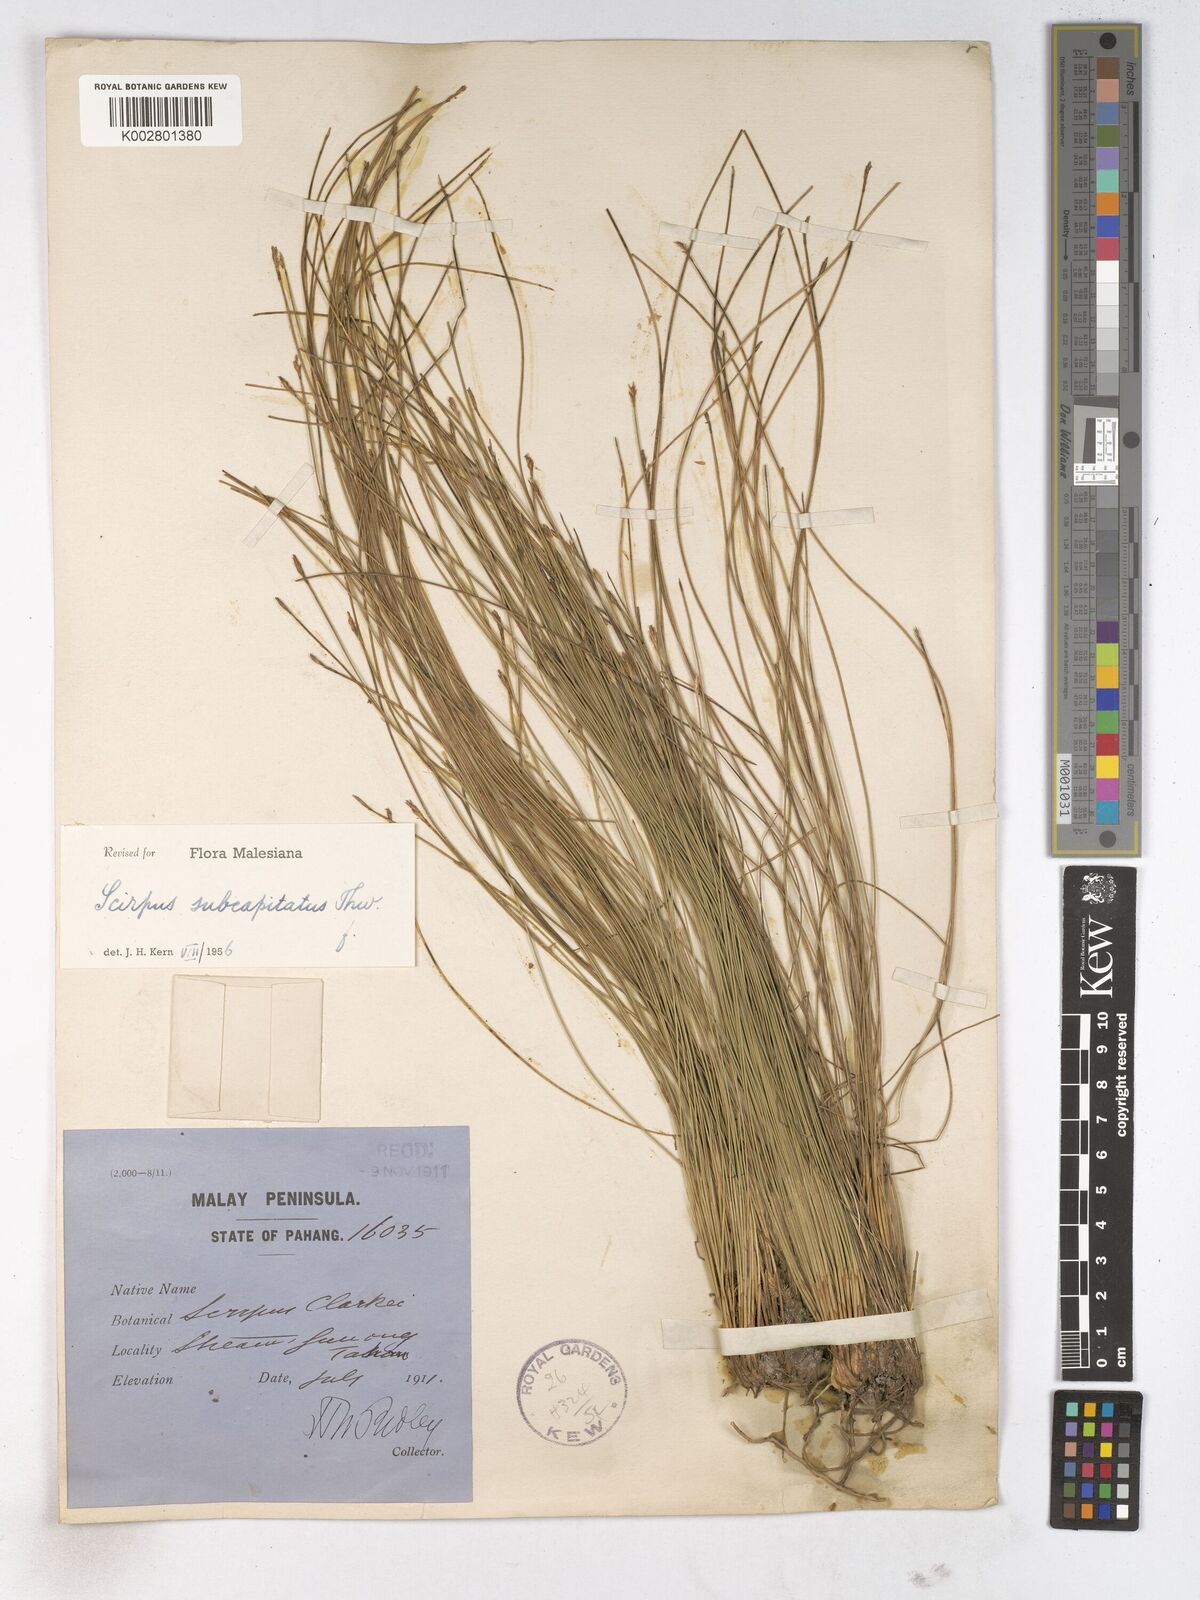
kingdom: Plantae
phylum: Tracheophyta
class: Liliopsida
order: Poales
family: Cyperaceae
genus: Trichophorum
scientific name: Trichophorum subcapitatum
